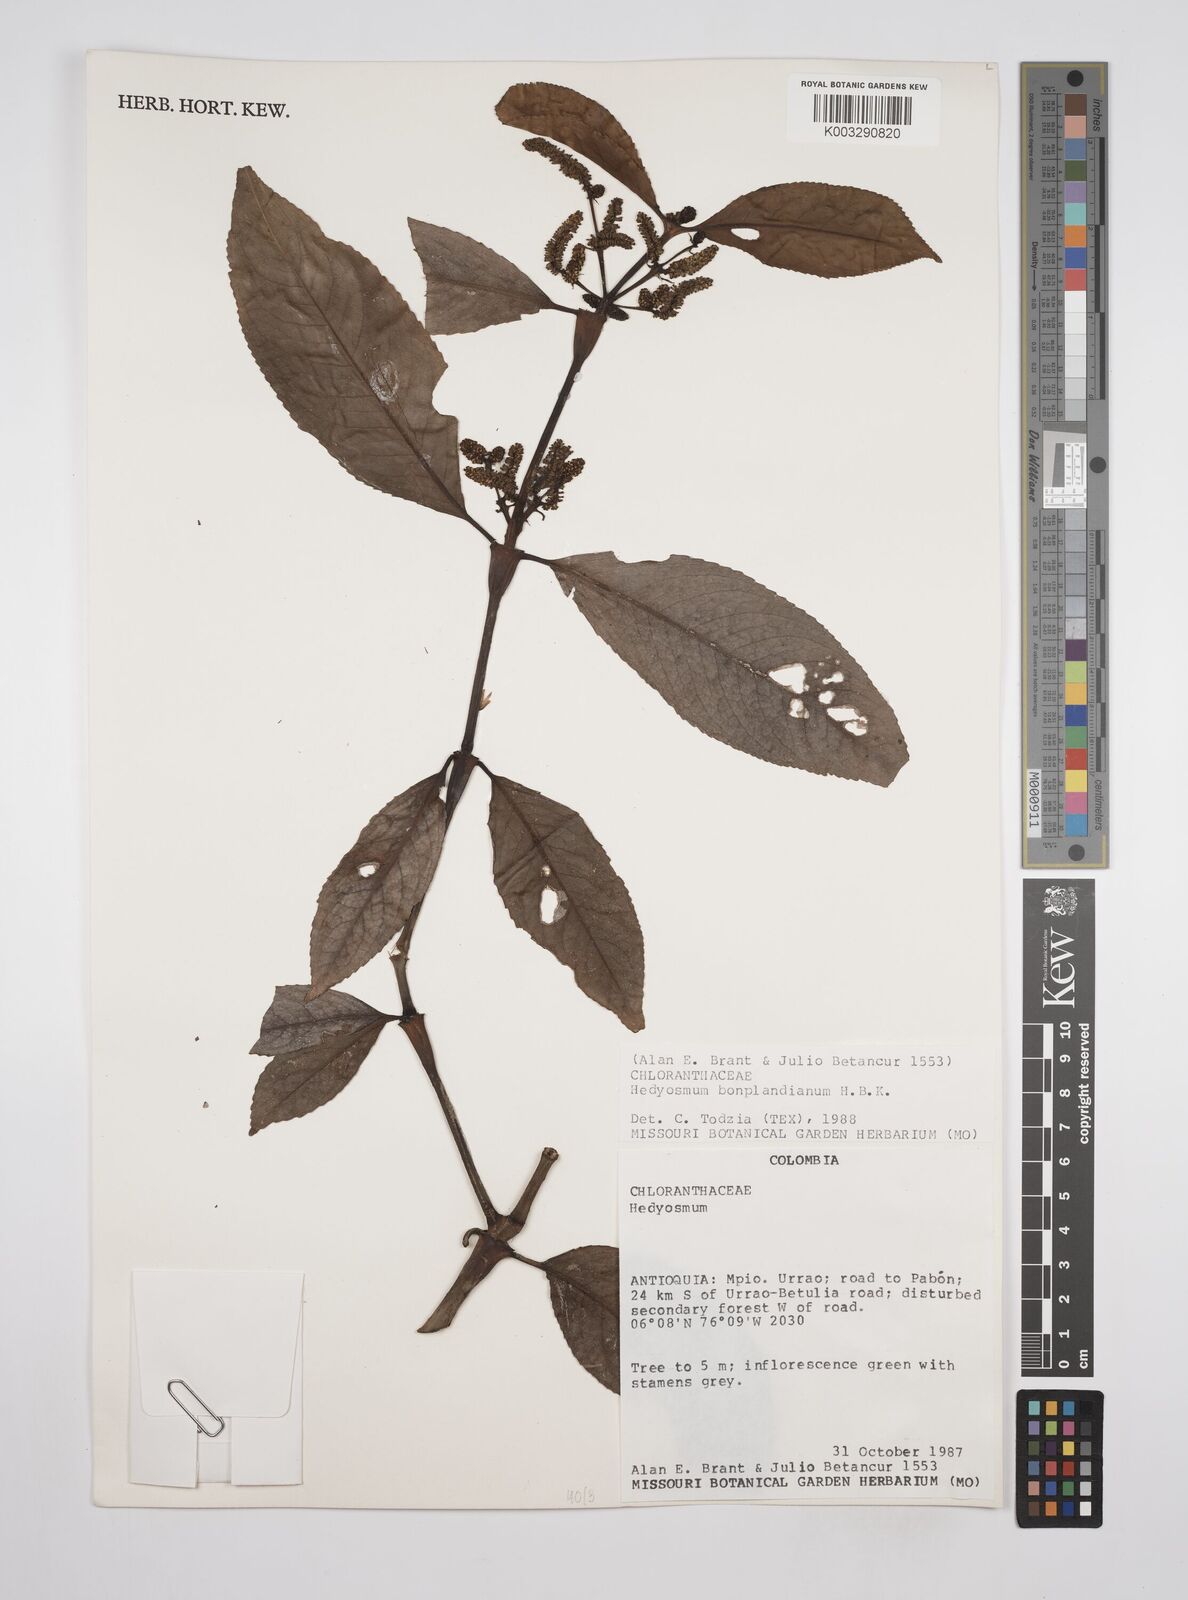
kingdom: Plantae
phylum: Tracheophyta
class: Magnoliopsida
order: Chloranthales
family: Chloranthaceae
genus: Hedyosmum
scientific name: Hedyosmum
